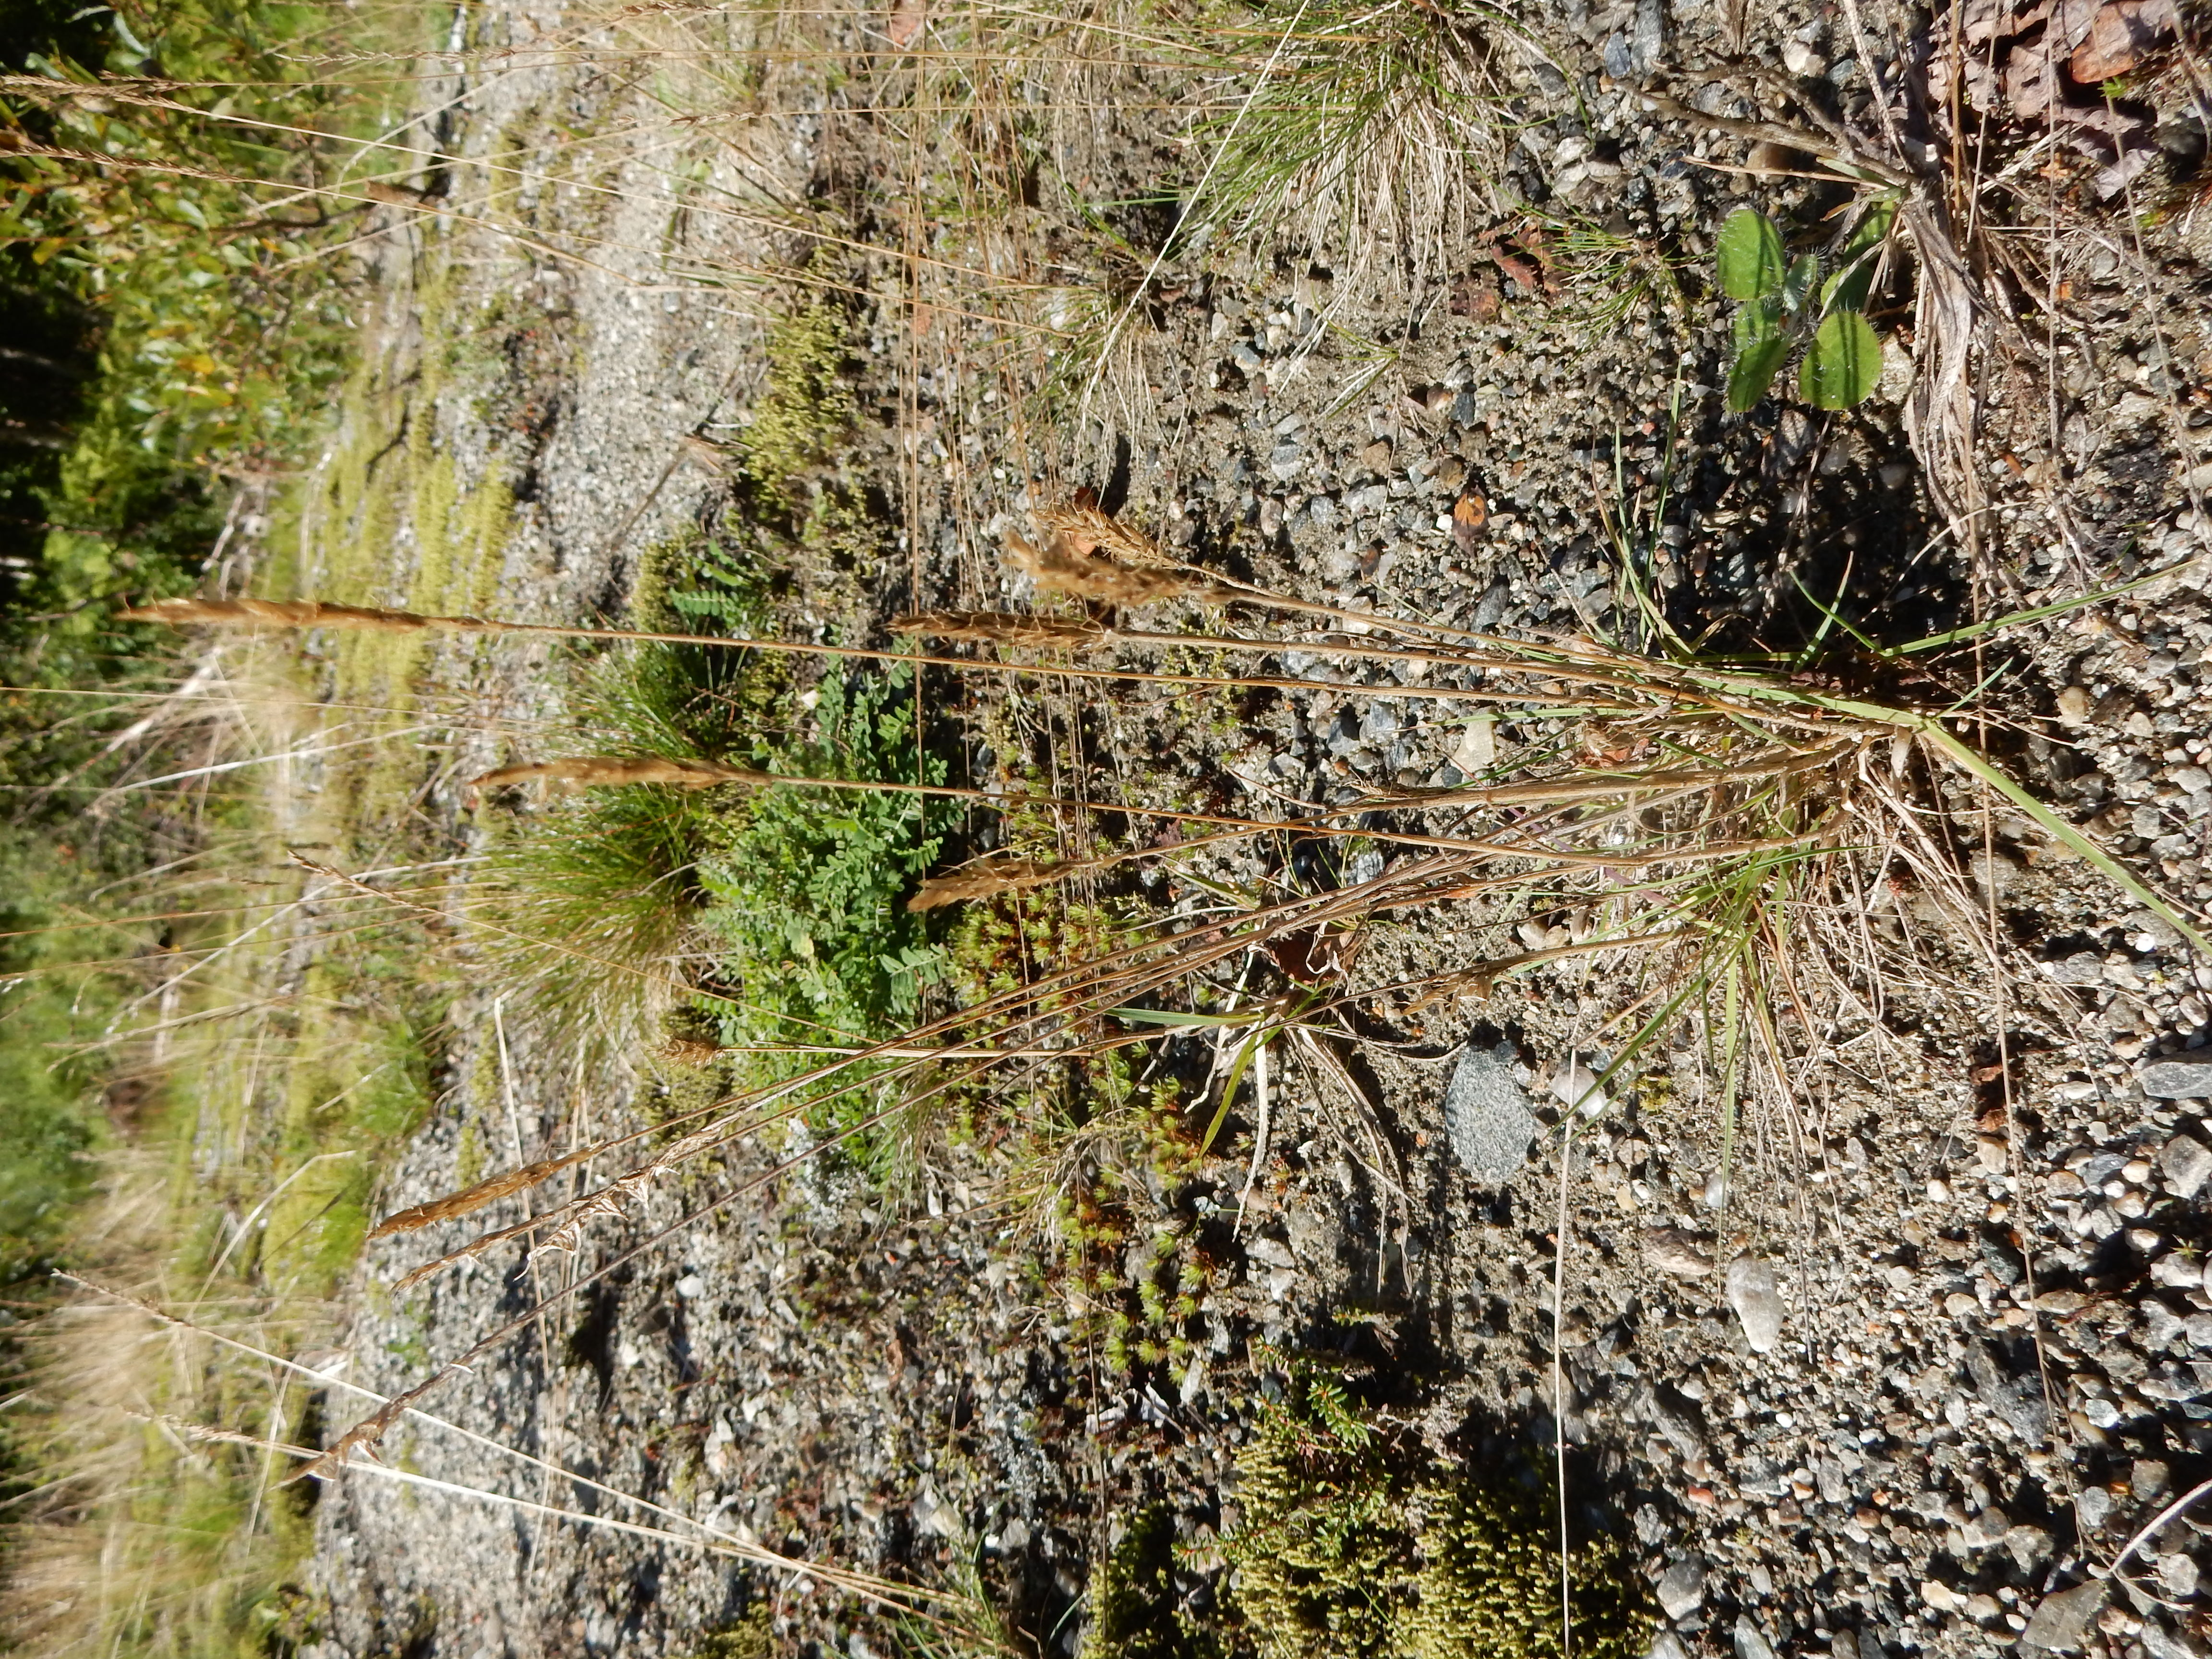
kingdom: Plantae
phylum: Tracheophyta
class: Liliopsida
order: Poales
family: Poaceae
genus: Koeleria
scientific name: Koeleria spicata
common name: Mountain trisetum
